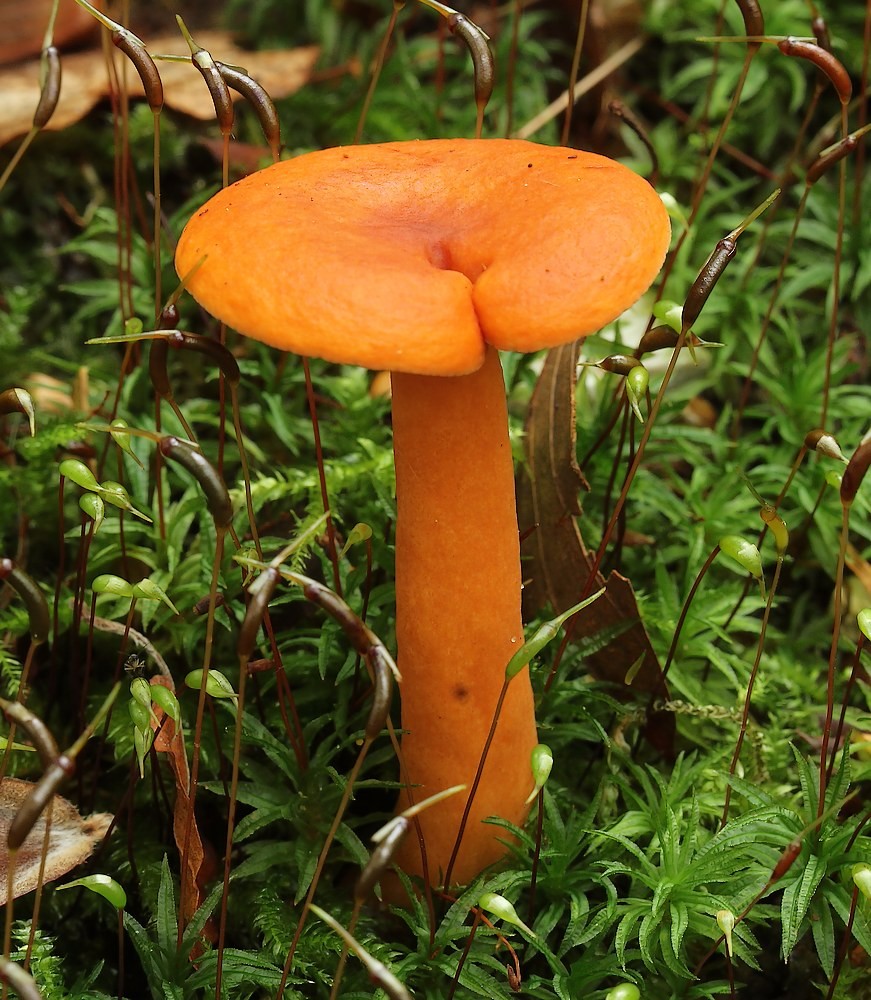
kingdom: Fungi
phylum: Basidiomycota
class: Agaricomycetes
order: Russulales
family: Russulaceae
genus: Lactarius
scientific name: Lactarius aurantiacus
